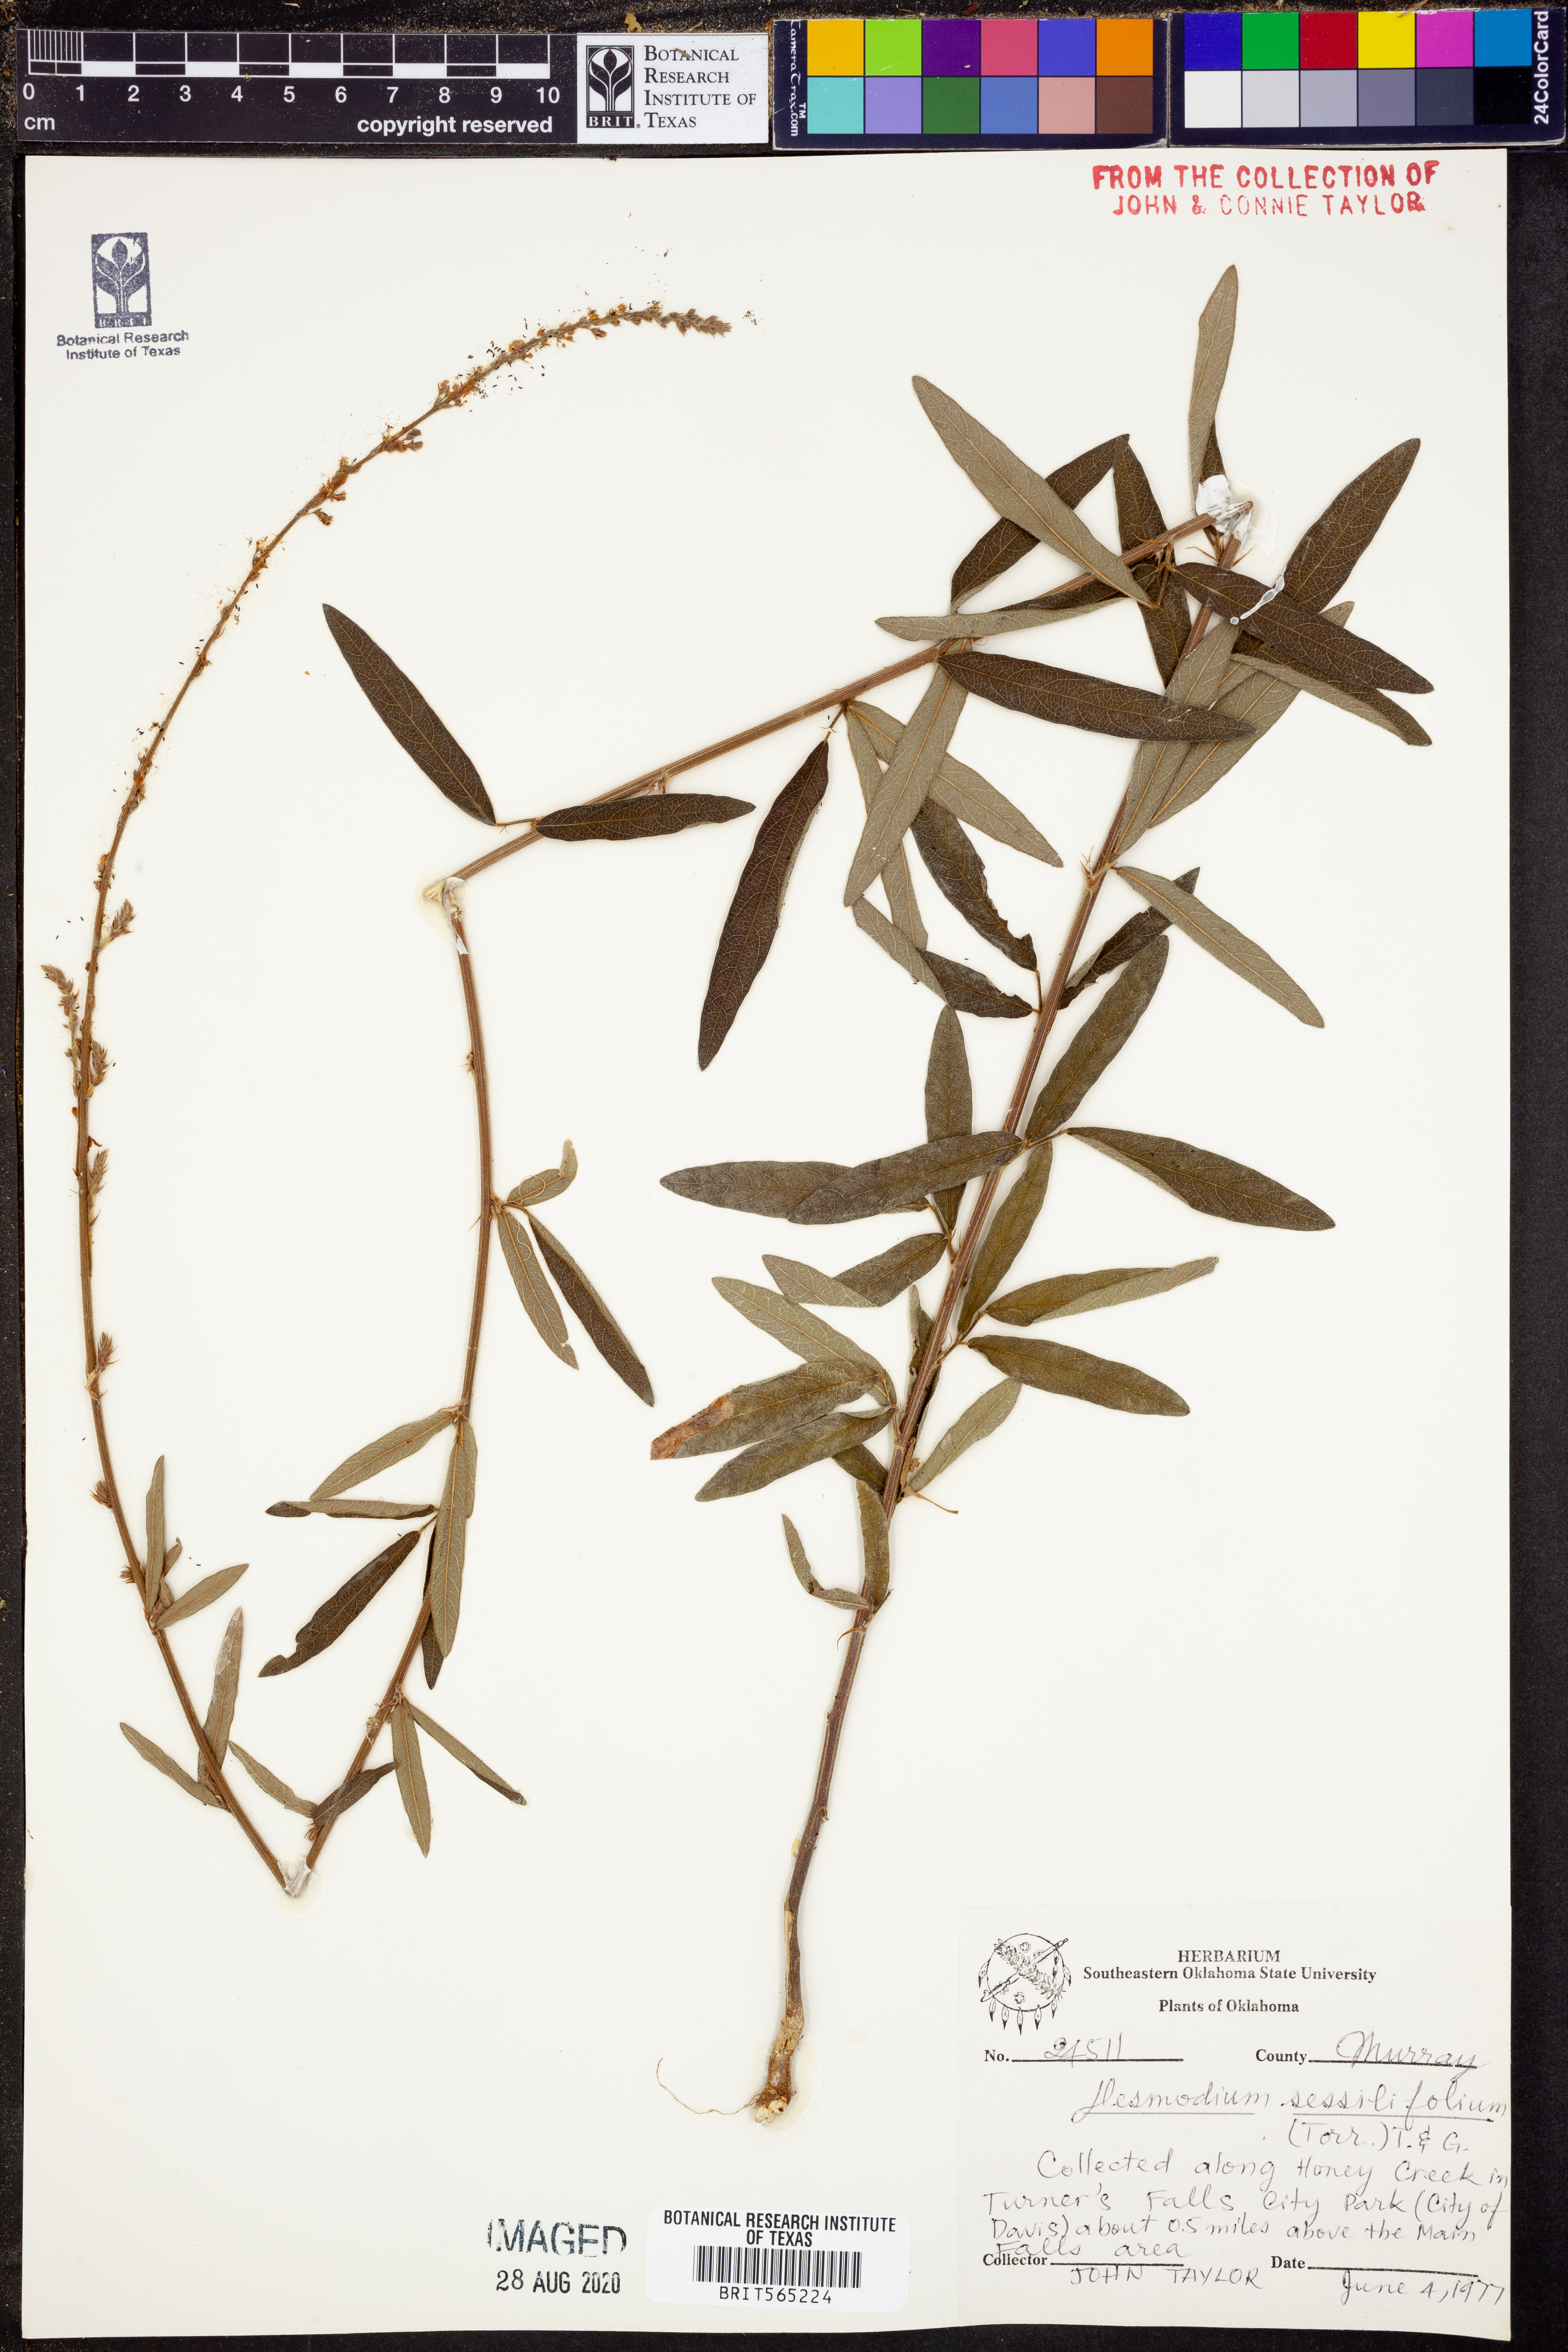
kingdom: Plantae
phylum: Tracheophyta
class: Magnoliopsida
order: Fabales
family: Fabaceae
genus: Desmodium
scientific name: Desmodium sessilifolium
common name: Sessile tick-clover
